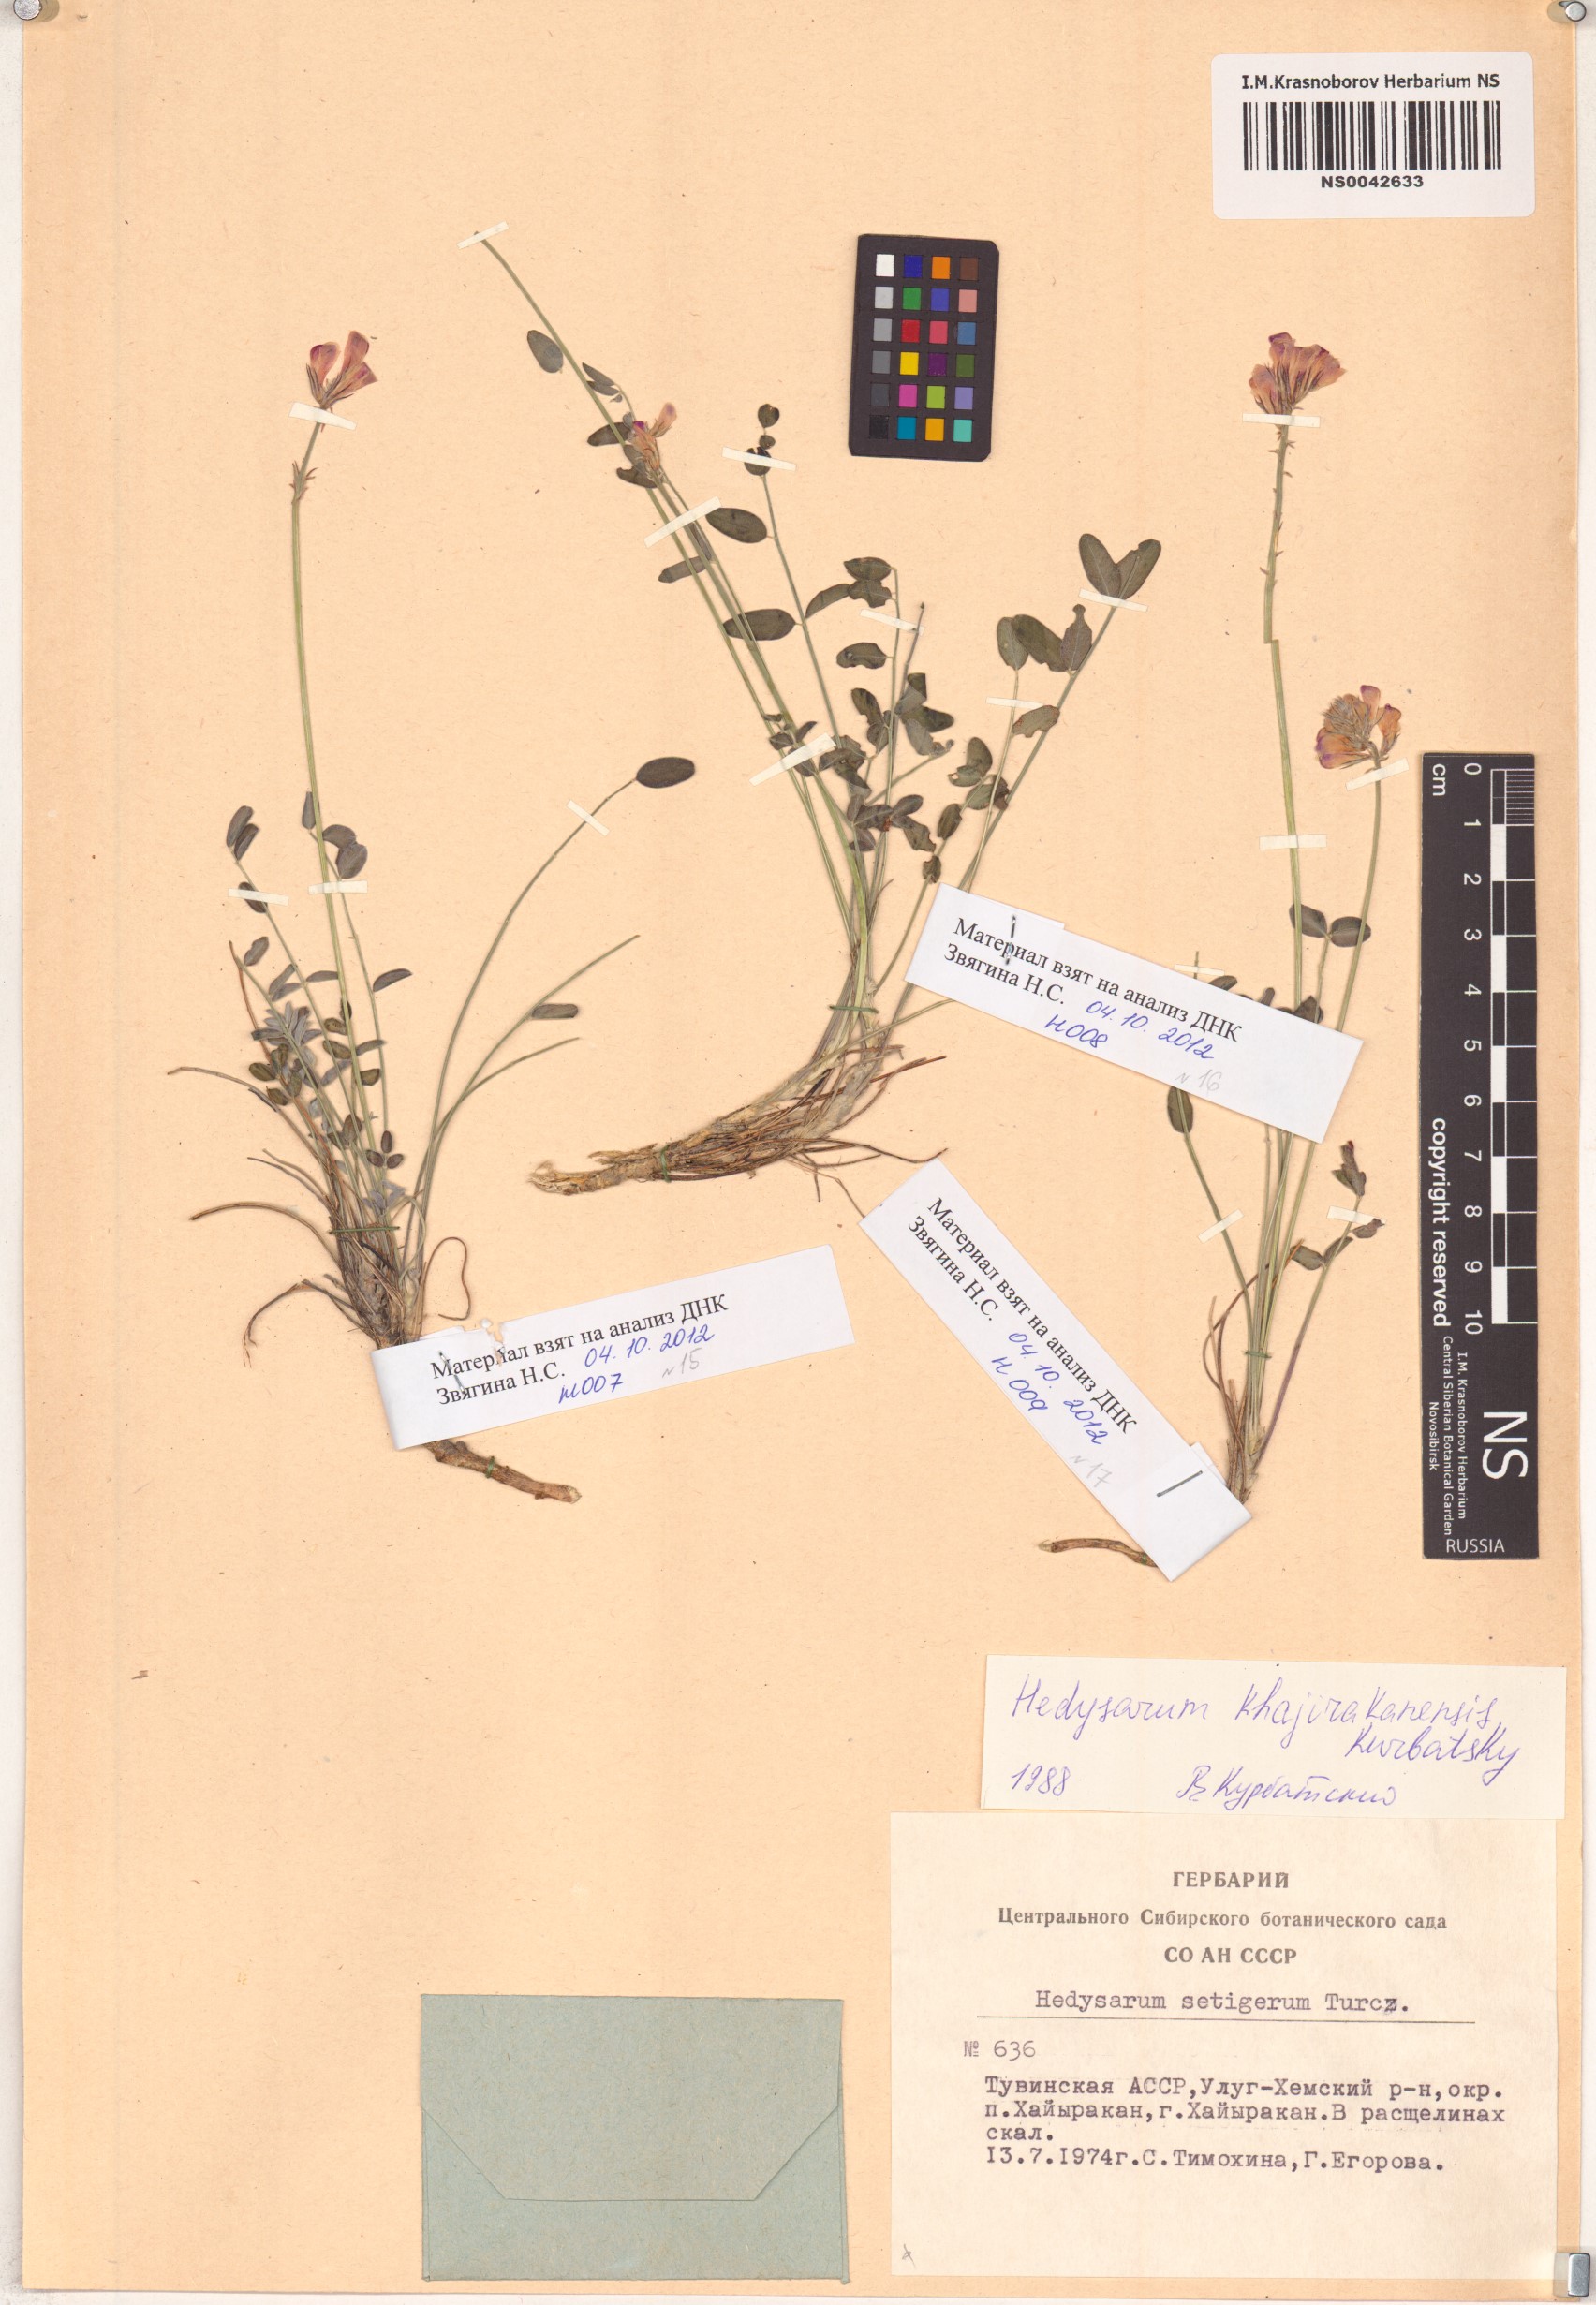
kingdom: Plantae
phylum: Tracheophyta
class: Magnoliopsida
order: Fabales
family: Fabaceae
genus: Hedysarum
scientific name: Hedysarum setigerum
